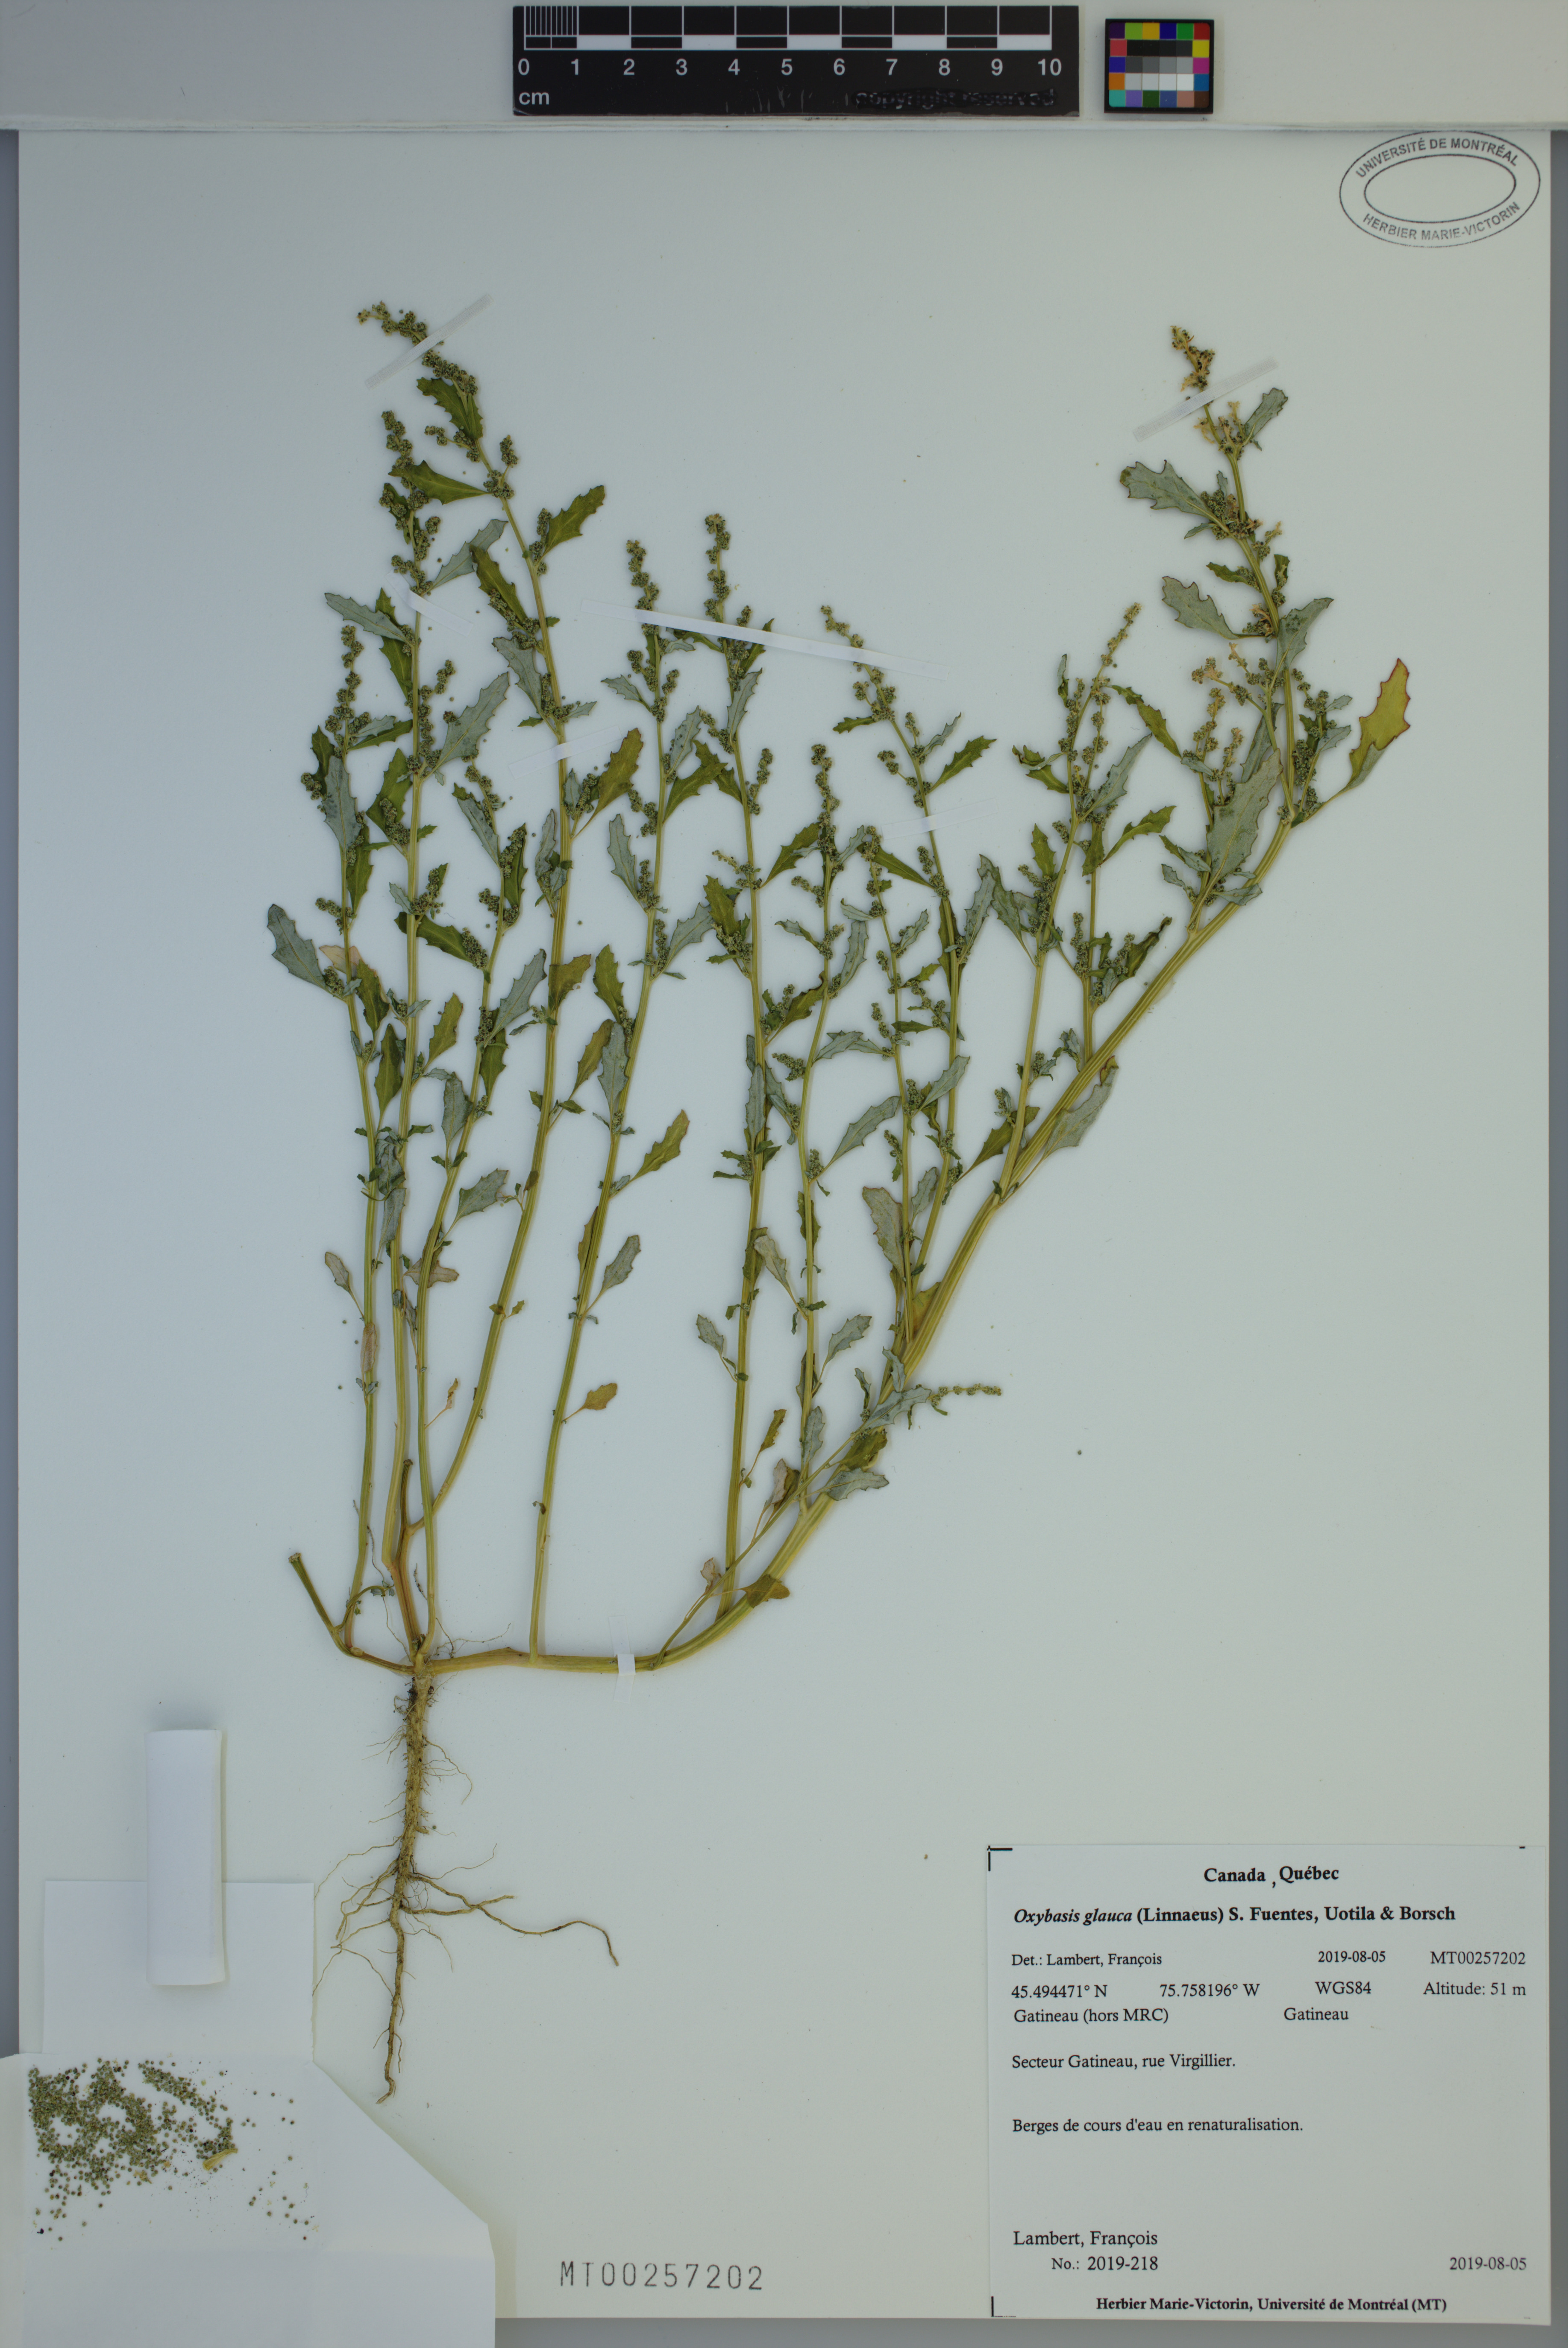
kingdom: Plantae
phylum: Tracheophyta
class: Magnoliopsida
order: Caryophyllales
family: Amaranthaceae
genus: Oxybasis
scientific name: Oxybasis glauca
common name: Glaucous goosefoot
